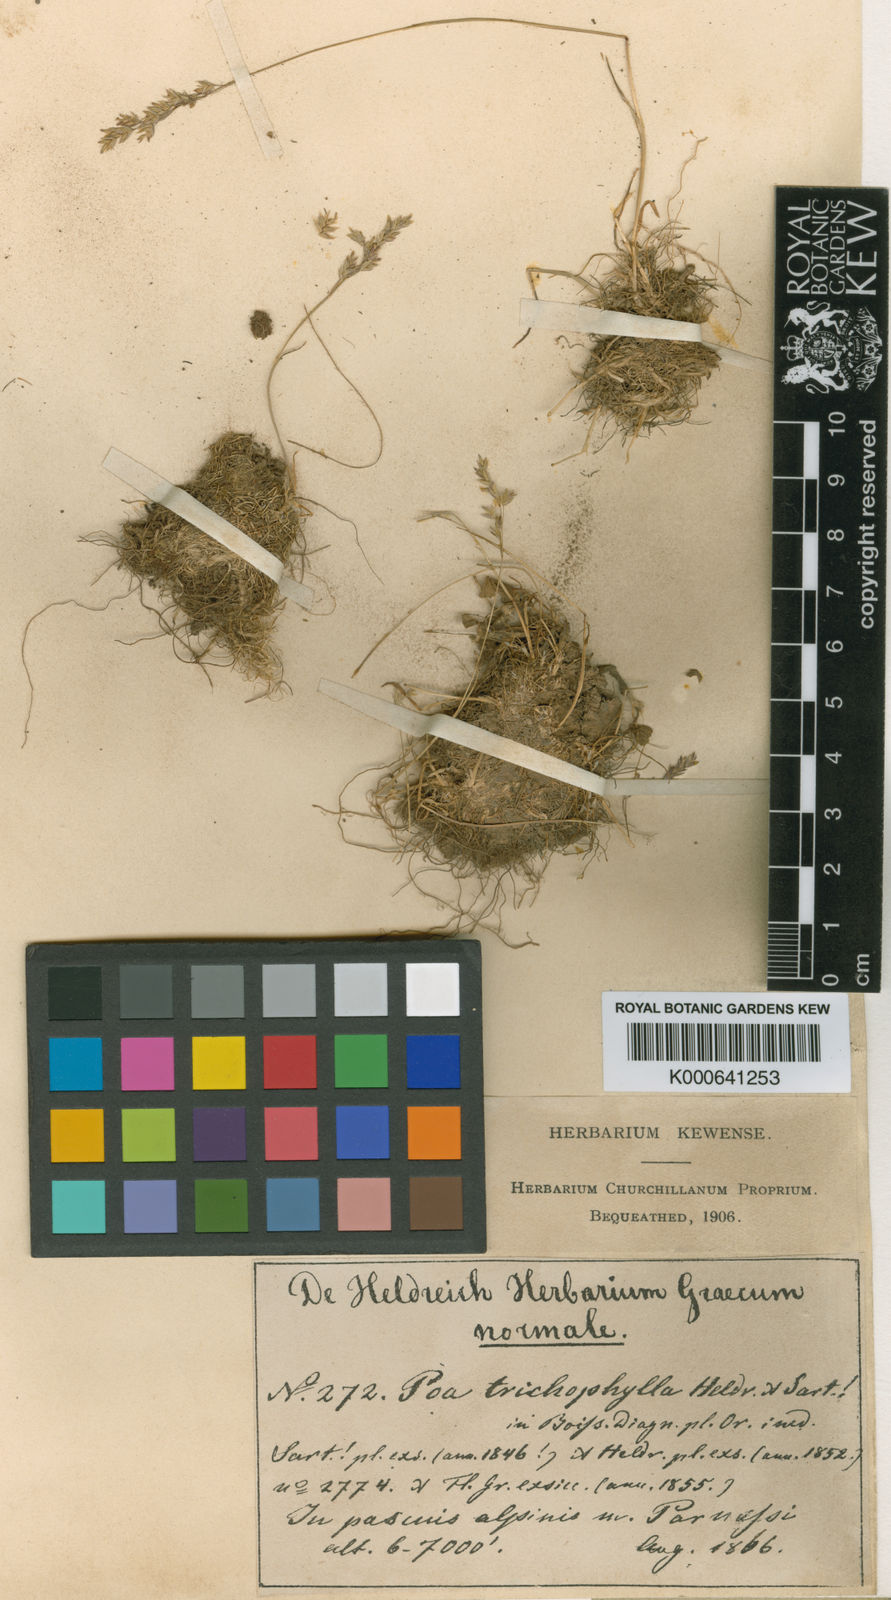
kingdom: Plantae
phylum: Tracheophyta
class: Liliopsida
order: Poales
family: Poaceae
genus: Poa
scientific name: Poa trichophylla
